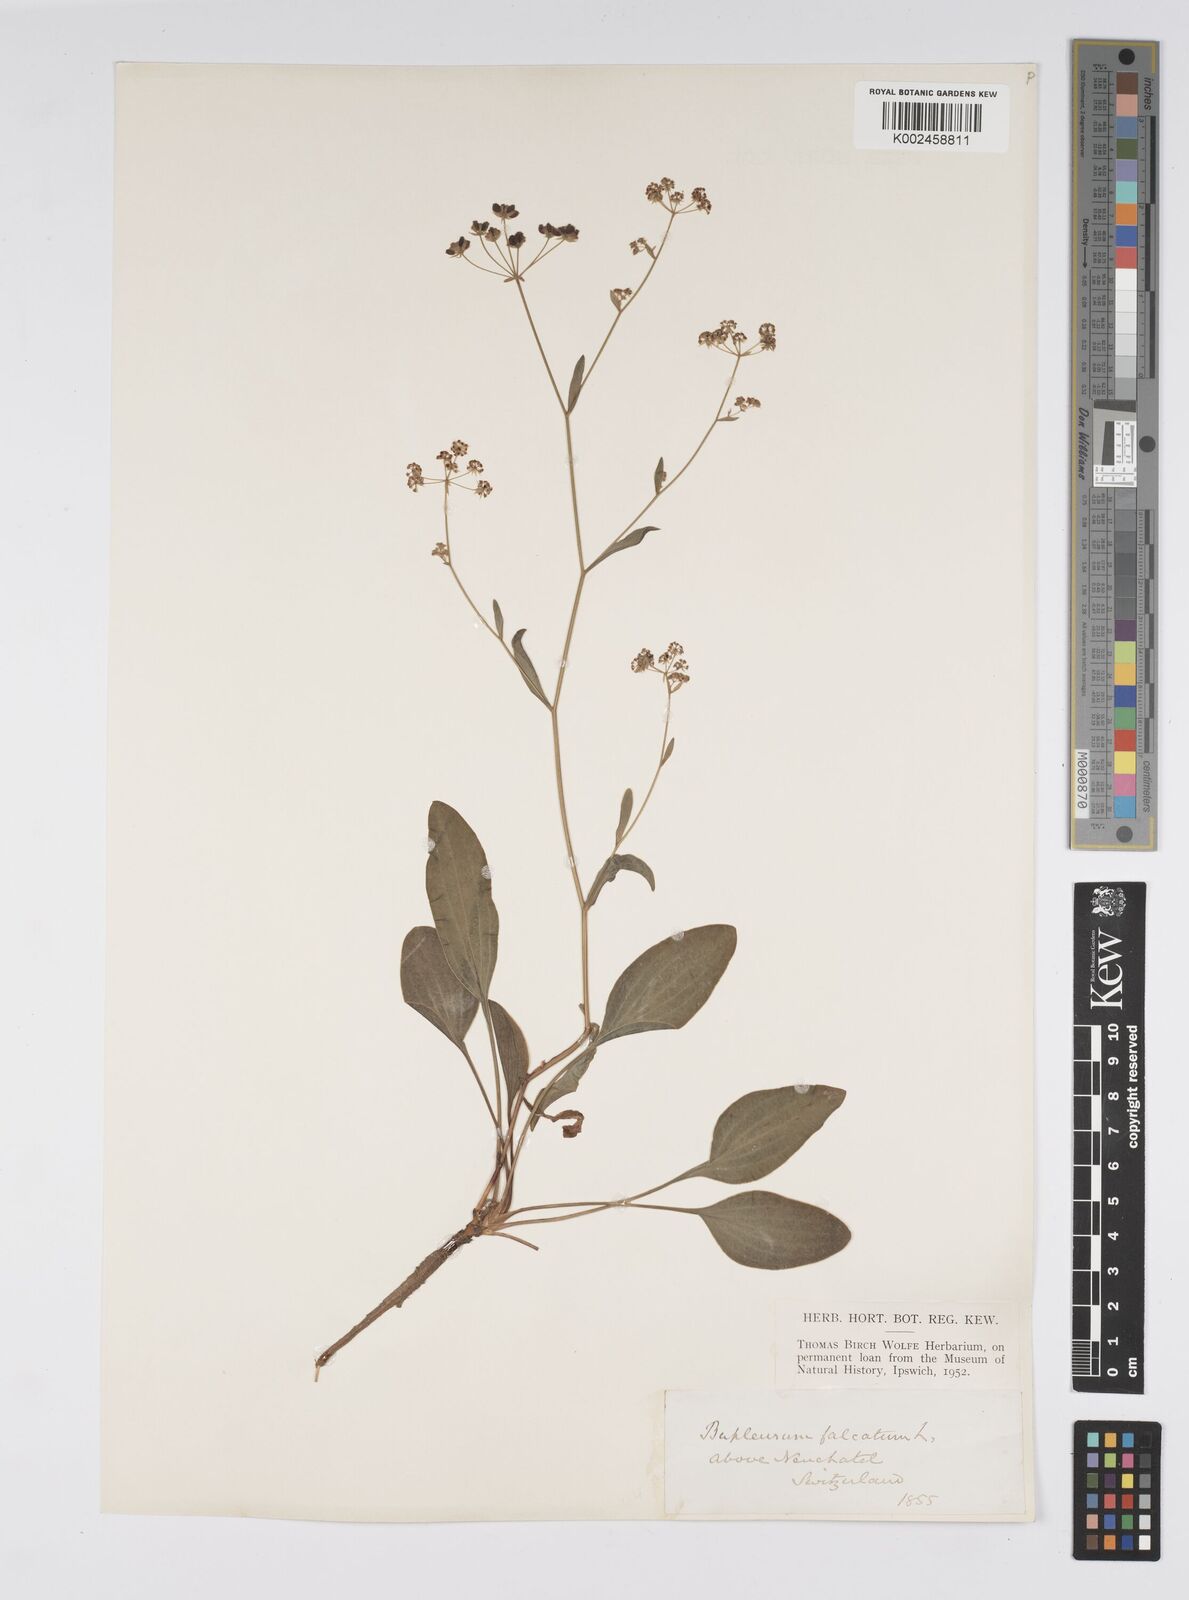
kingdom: Plantae
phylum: Tracheophyta
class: Magnoliopsida
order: Apiales
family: Apiaceae
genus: Bupleurum
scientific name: Bupleurum falcatum
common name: Sickle-leaved hare's-ear
